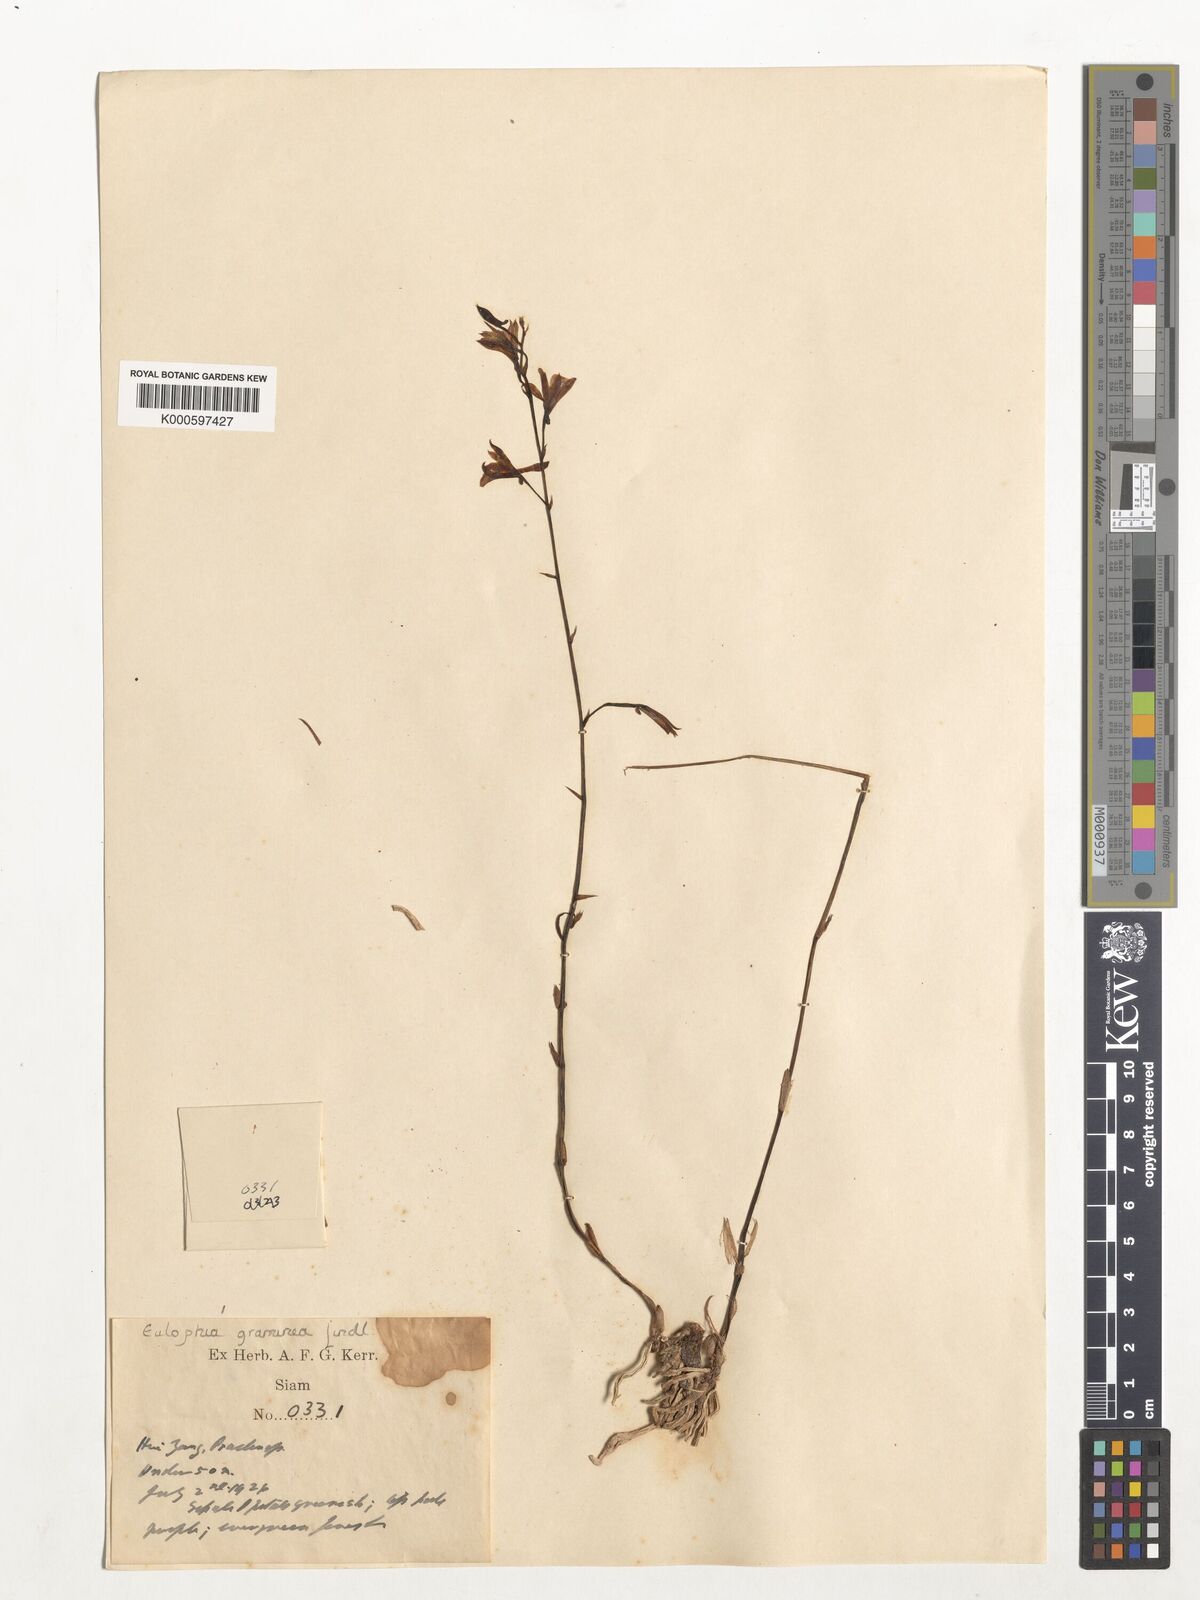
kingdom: Plantae
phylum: Tracheophyta
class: Liliopsida
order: Asparagales
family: Orchidaceae
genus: Eulophia
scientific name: Eulophia graminea
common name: Orchid
